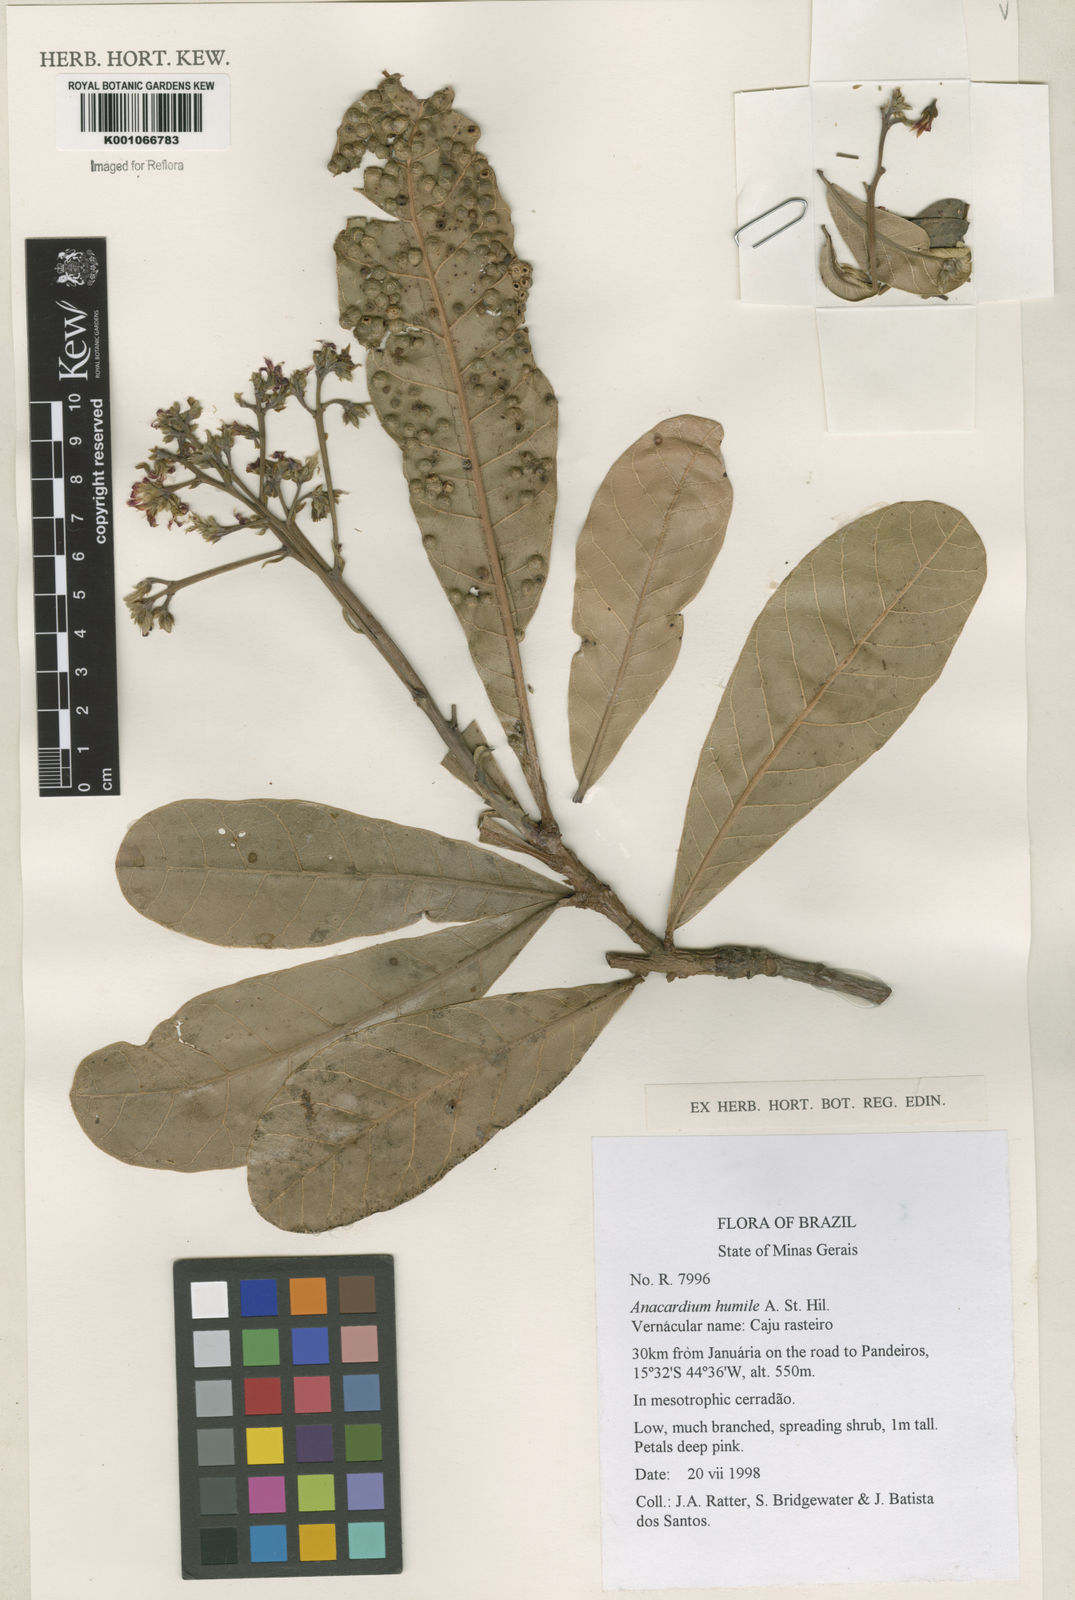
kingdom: Plantae
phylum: Tracheophyta
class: Magnoliopsida
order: Sapindales
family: Anacardiaceae
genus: Anacardium
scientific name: Anacardium humile
